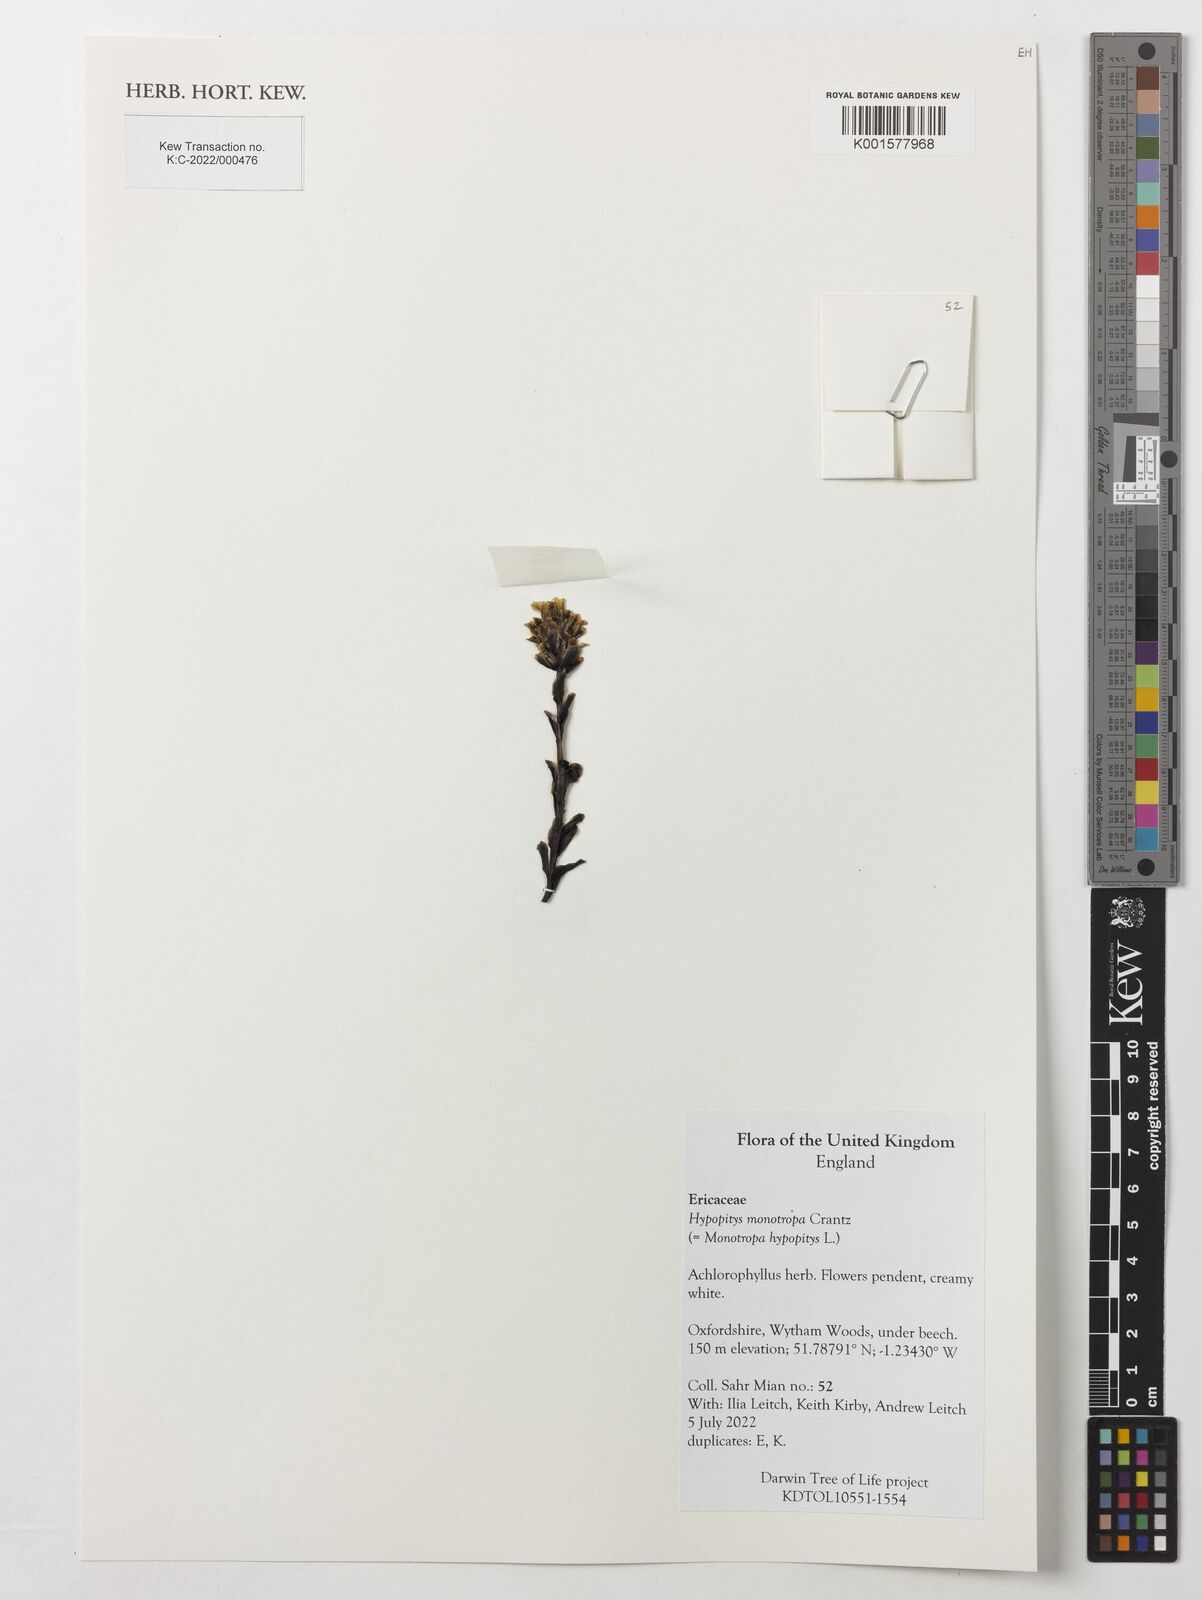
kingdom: Plantae
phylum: Tracheophyta
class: Magnoliopsida
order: Ericales
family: Ericaceae
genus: Hypopitys
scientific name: Hypopitys monotropa
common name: Yellow bird's-nest
